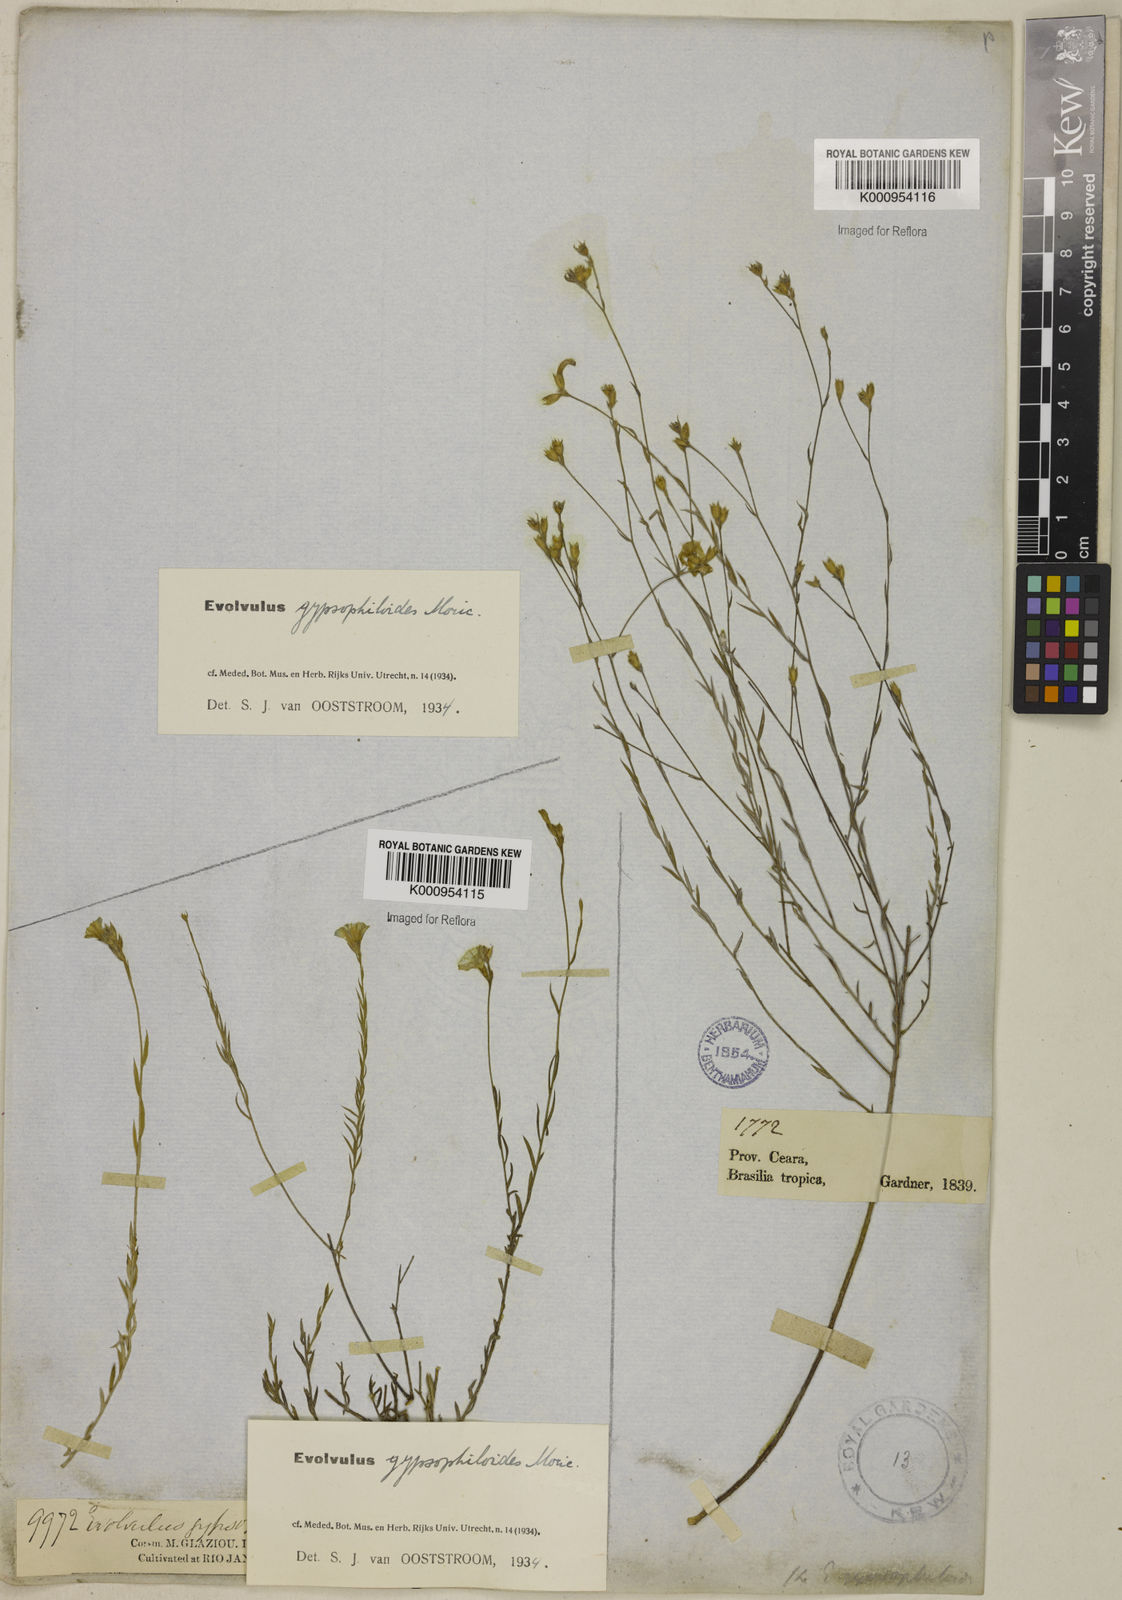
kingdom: Plantae
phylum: Tracheophyta
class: Magnoliopsida
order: Solanales
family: Convolvulaceae
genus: Evolvulus
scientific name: Evolvulus gypsophiloides
